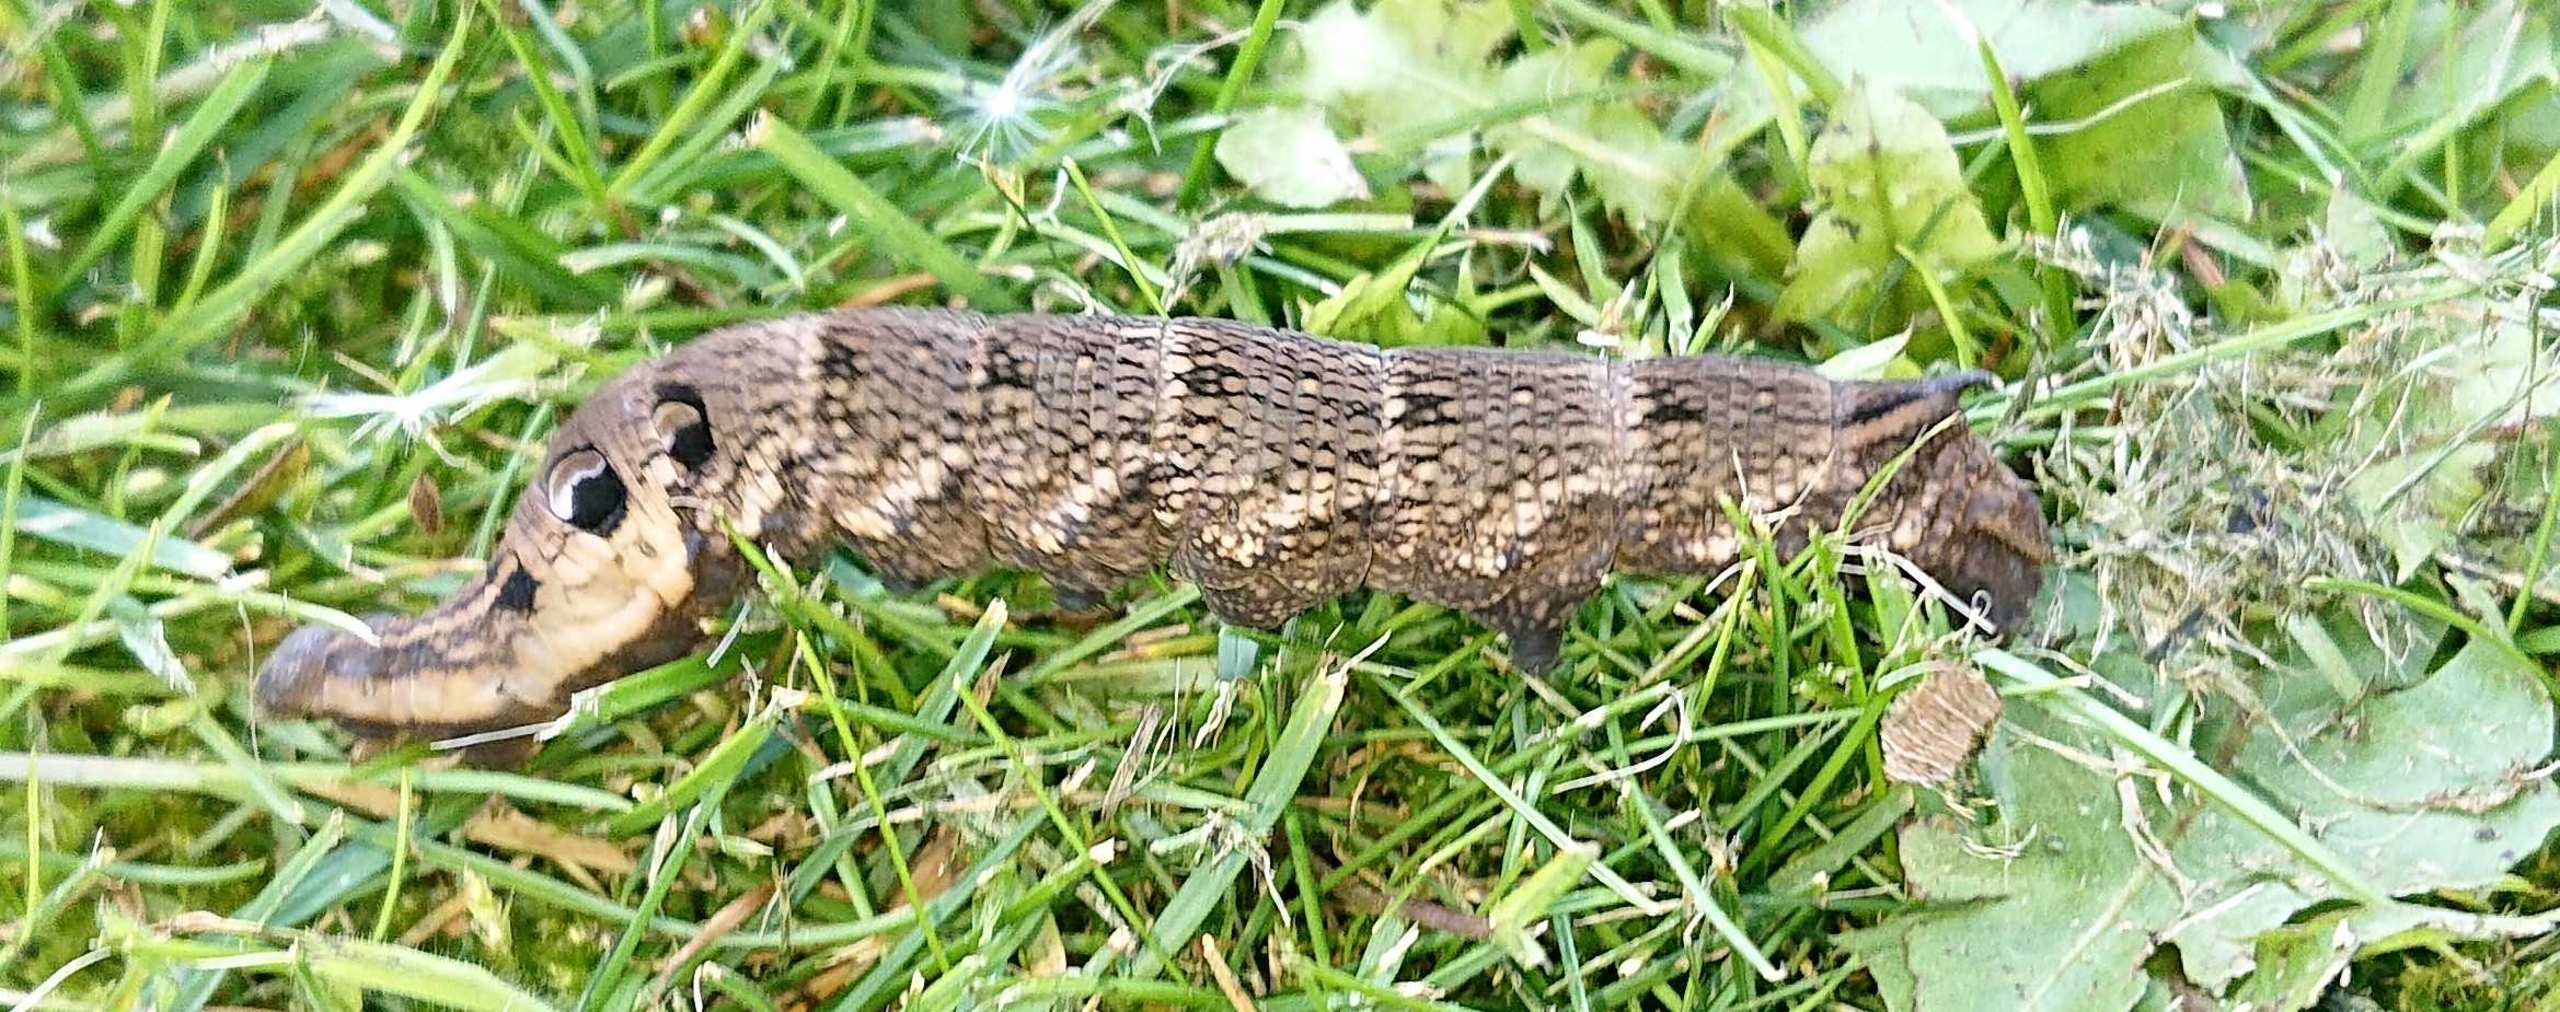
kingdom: Animalia
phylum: Arthropoda
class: Insecta
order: Lepidoptera
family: Sphingidae
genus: Deilephila
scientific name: Deilephila elpenor
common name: Dueurtsværmer
